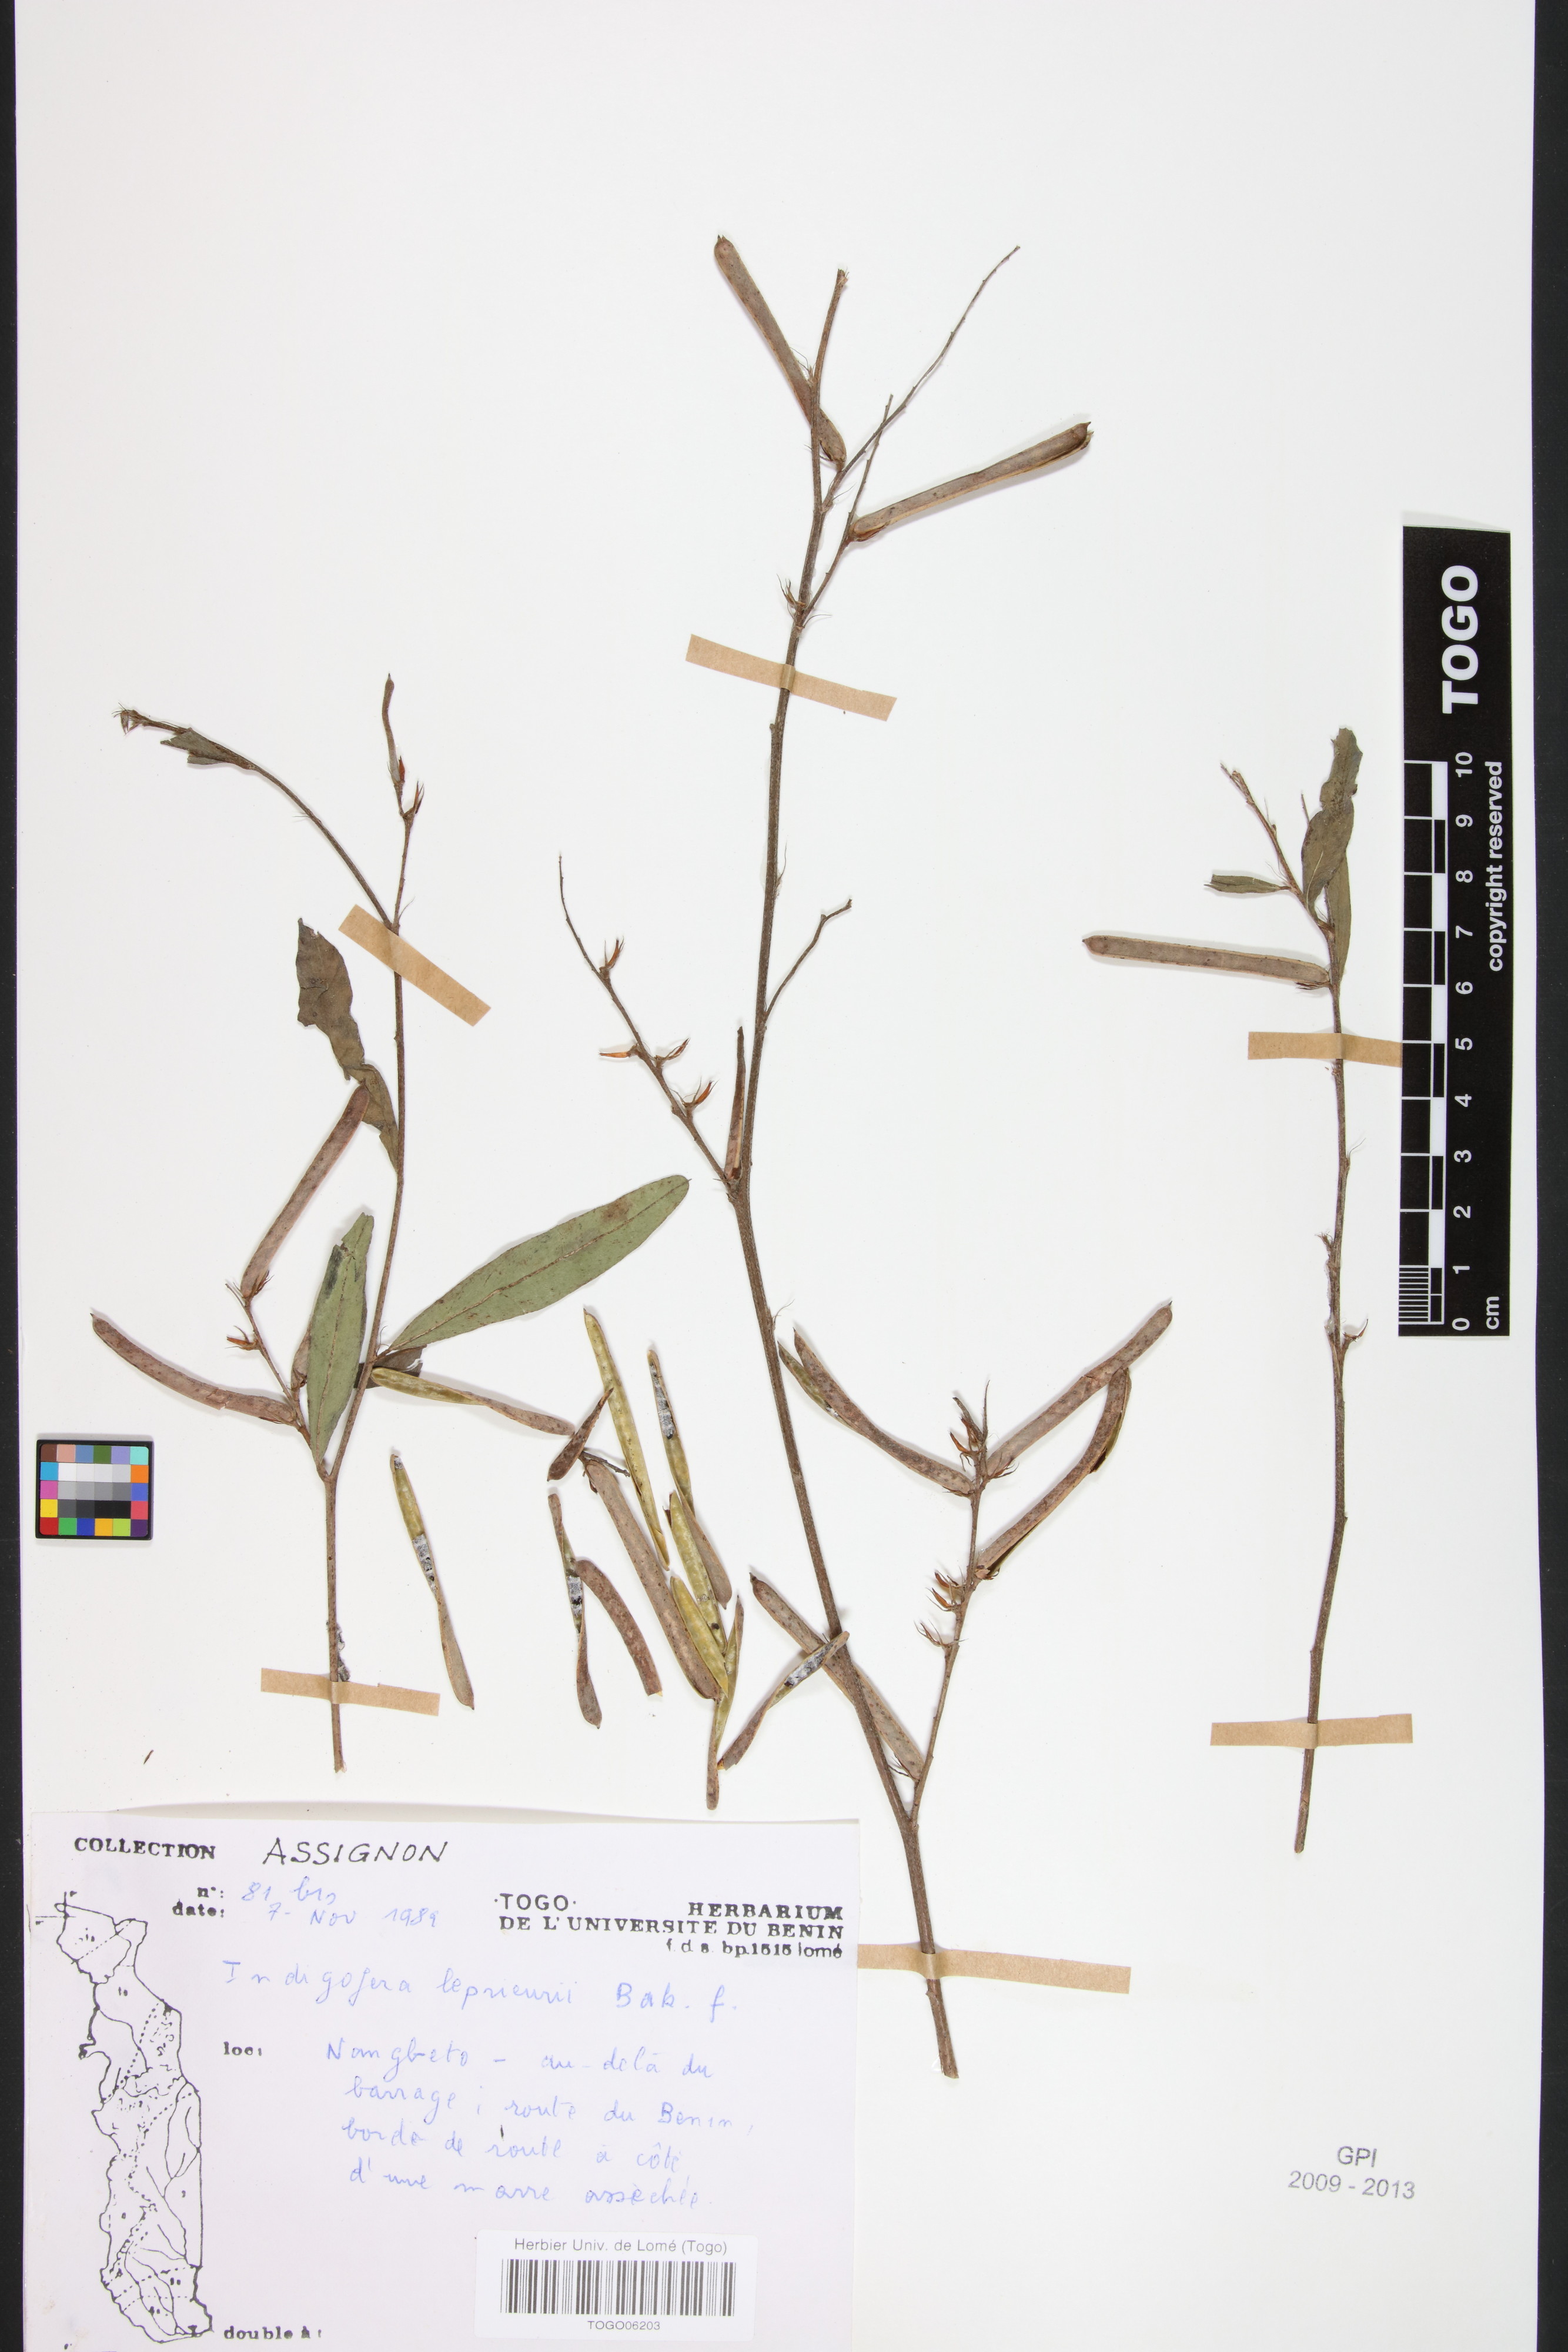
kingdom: Plantae
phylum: Tracheophyta
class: Magnoliopsida
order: Fabales
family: Fabaceae
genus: Indigofera
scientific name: Indigofera leprieurii
